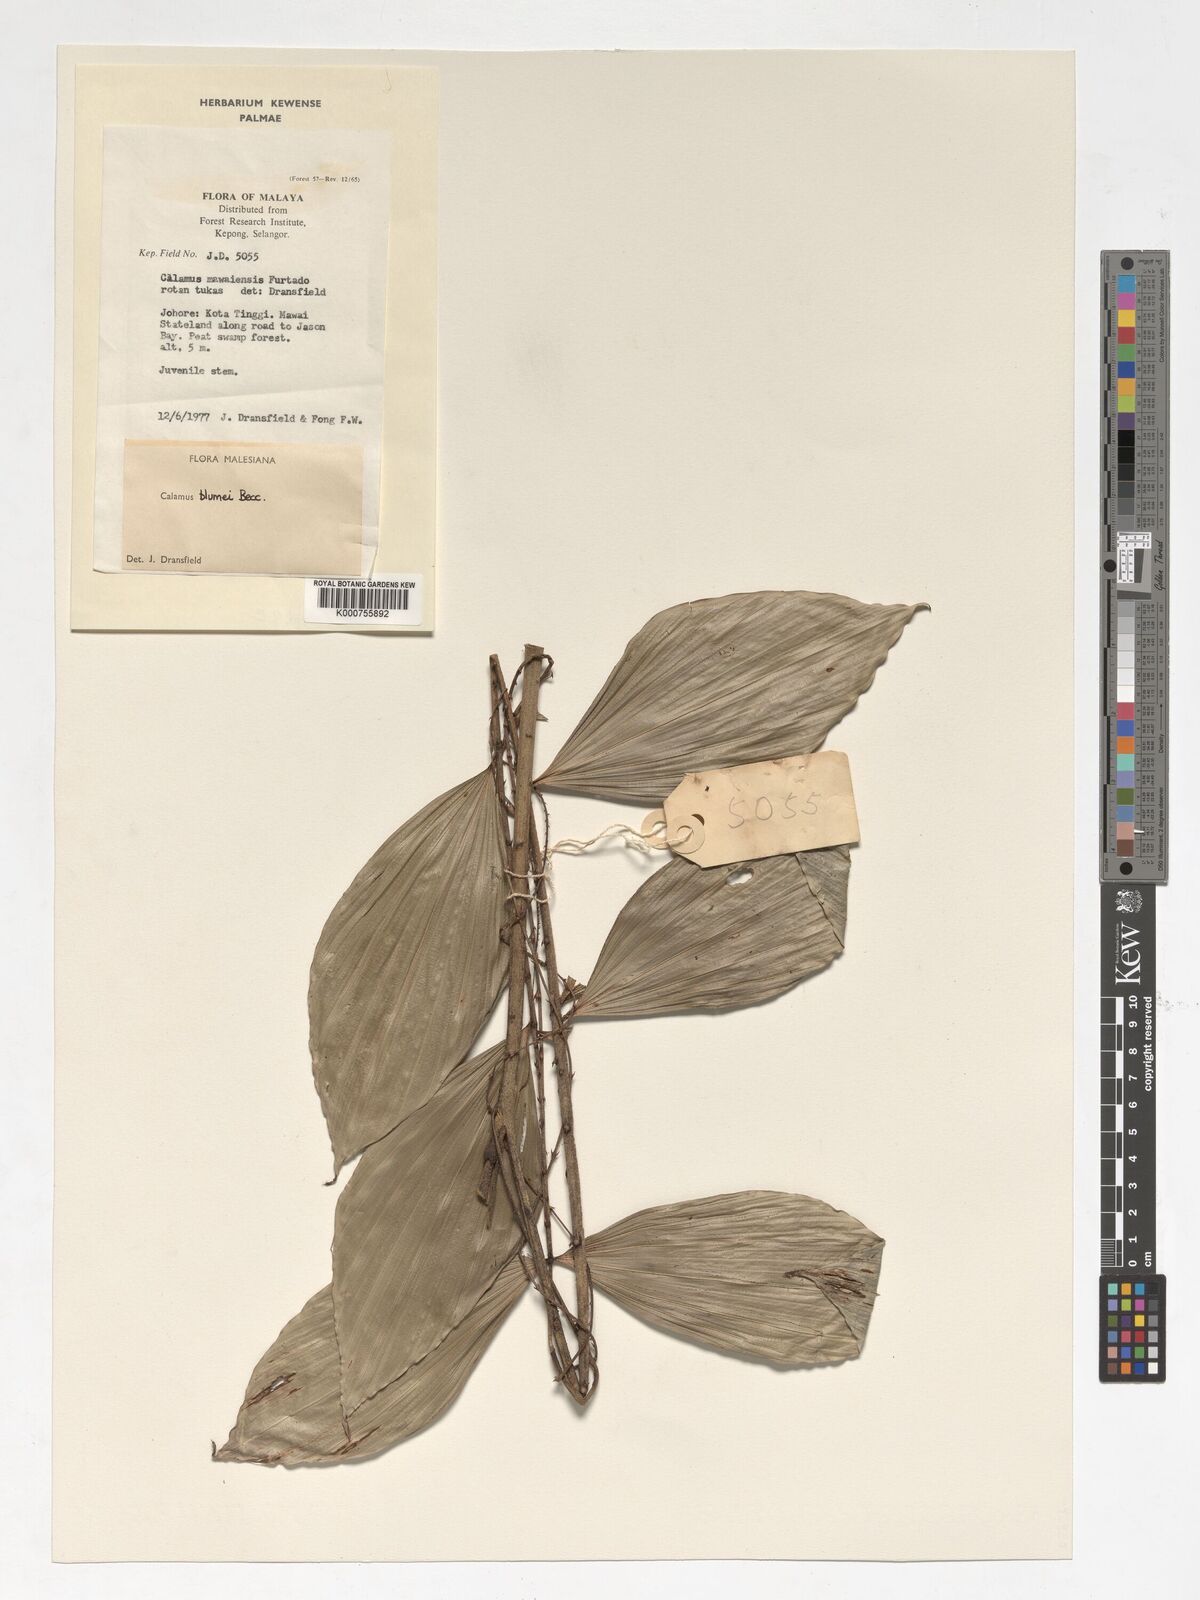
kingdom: Plantae
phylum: Tracheophyta
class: Liliopsida
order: Arecales
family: Arecaceae
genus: Calamus
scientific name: Calamus rhomboideus
